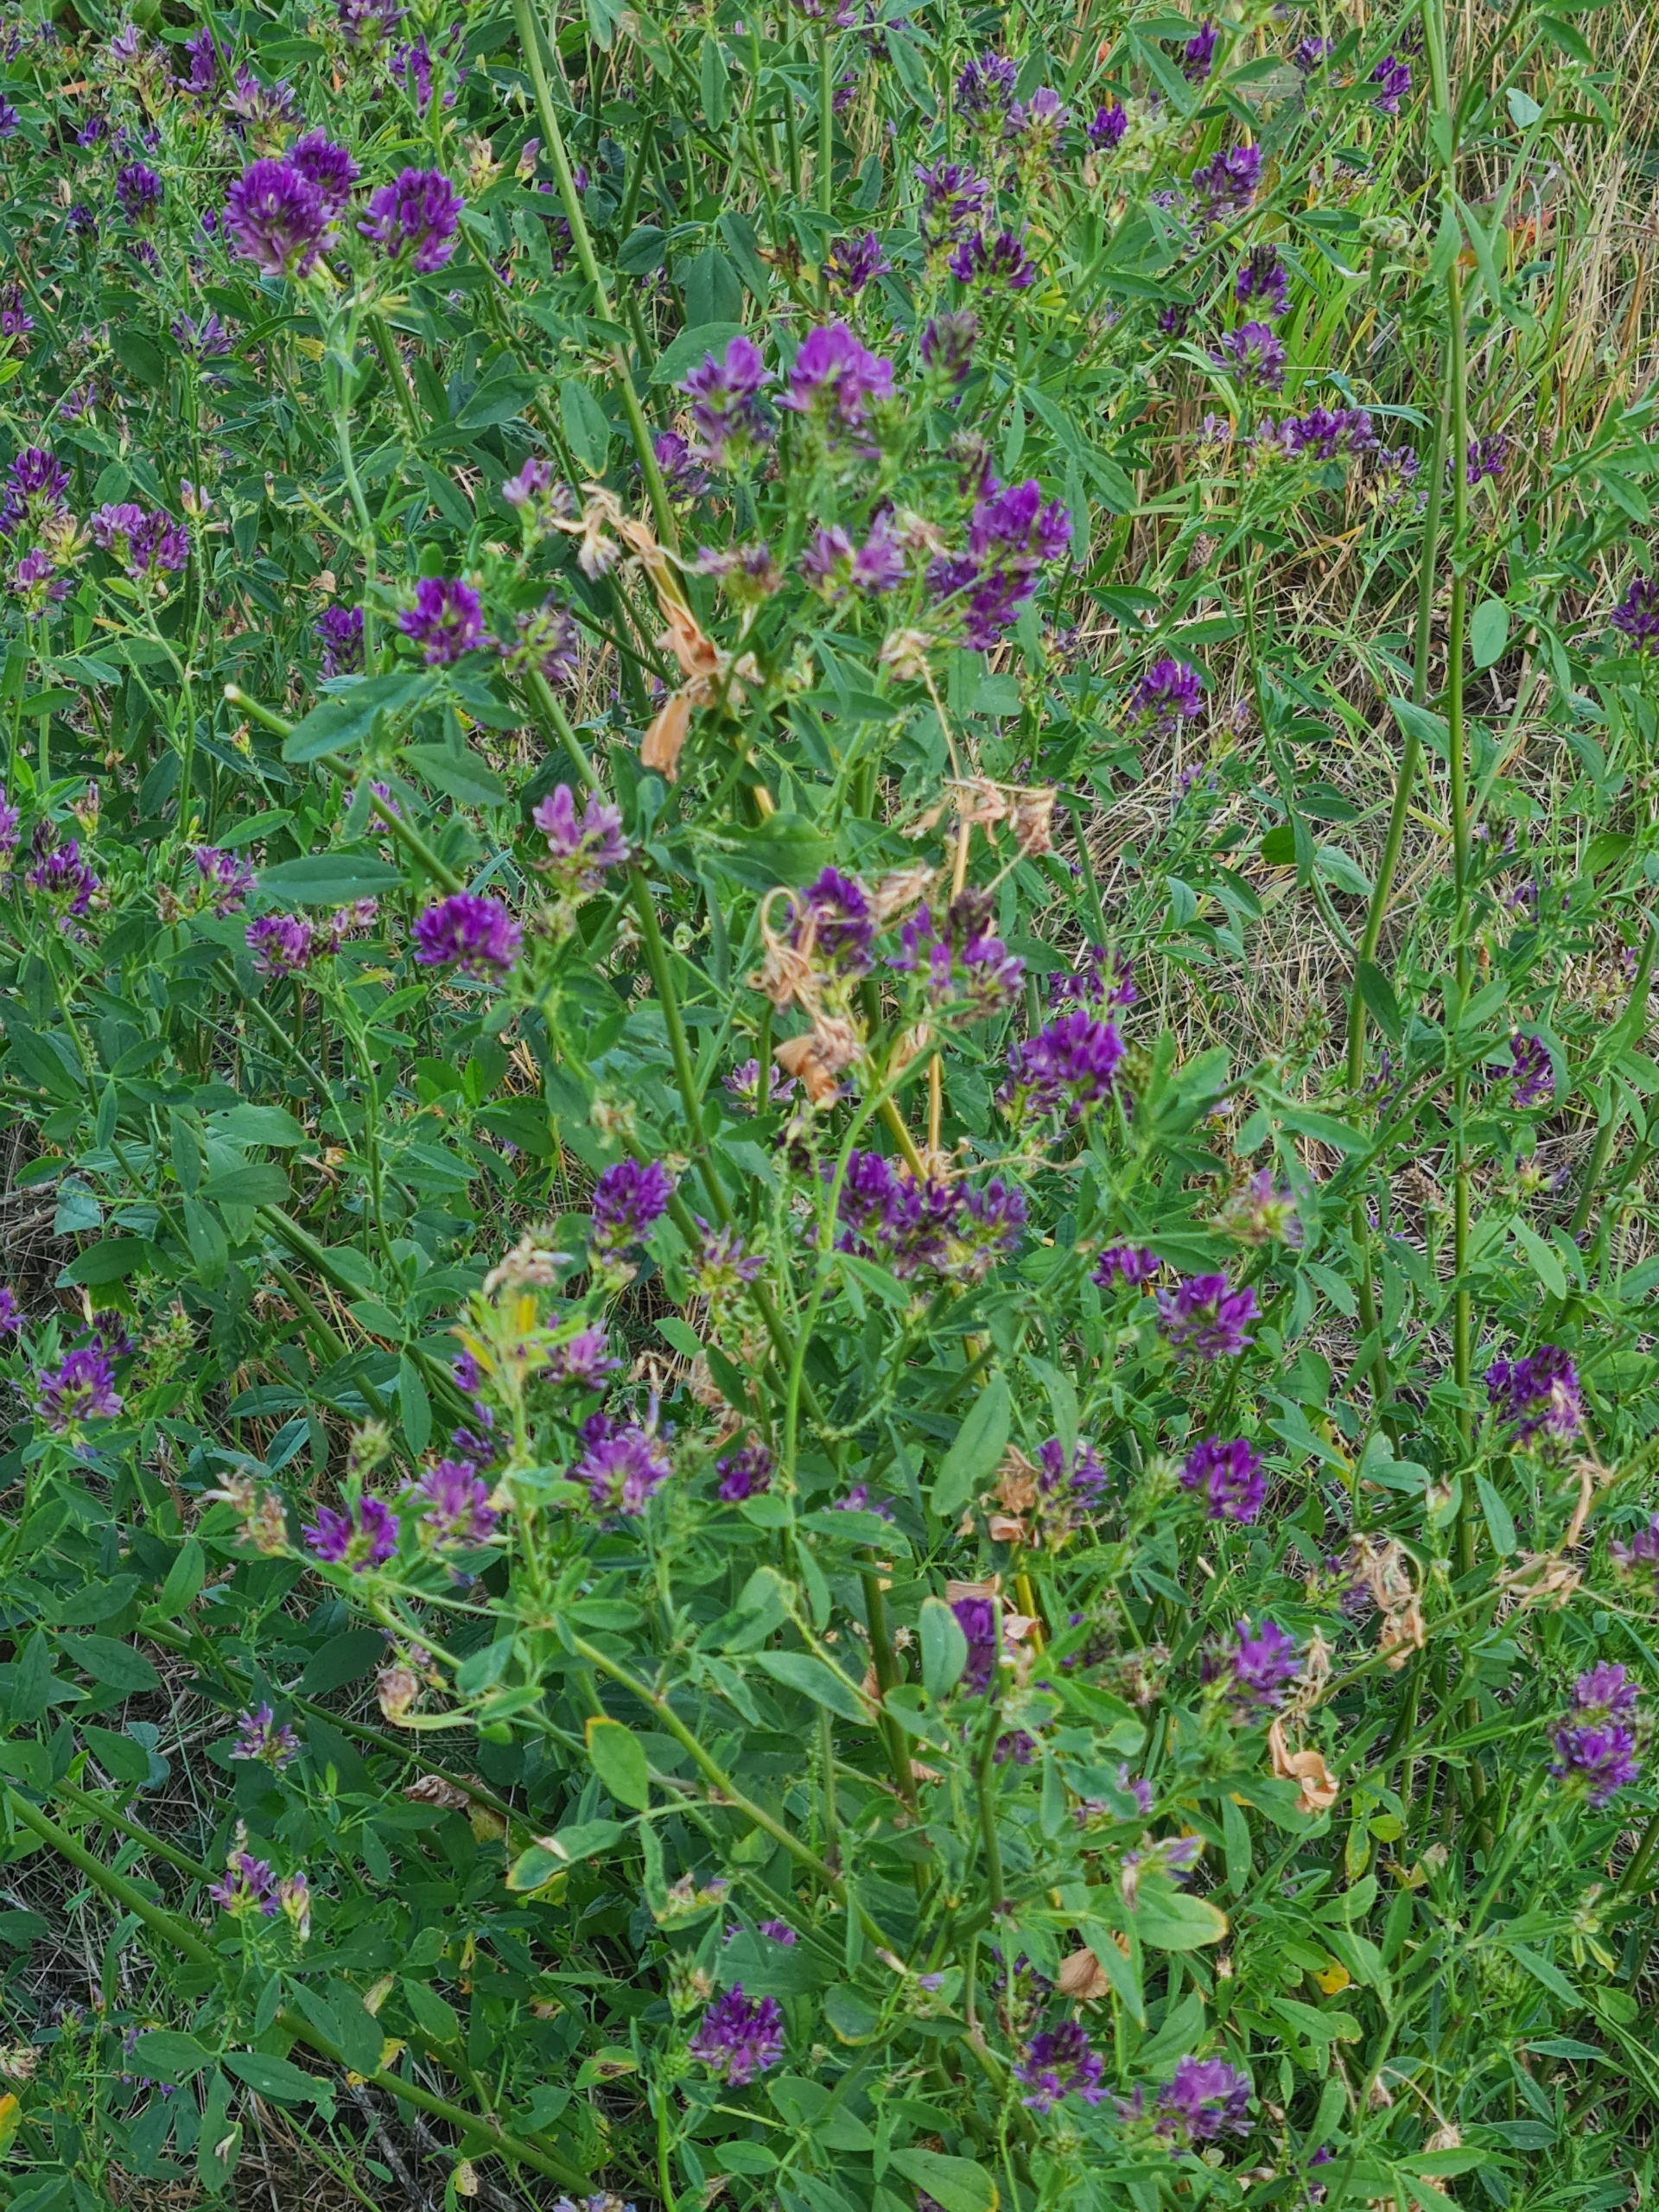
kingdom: Plantae
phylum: Tracheophyta
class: Magnoliopsida
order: Fabales
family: Fabaceae
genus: Medicago
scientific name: Medicago sativa
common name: Foderlucerne
